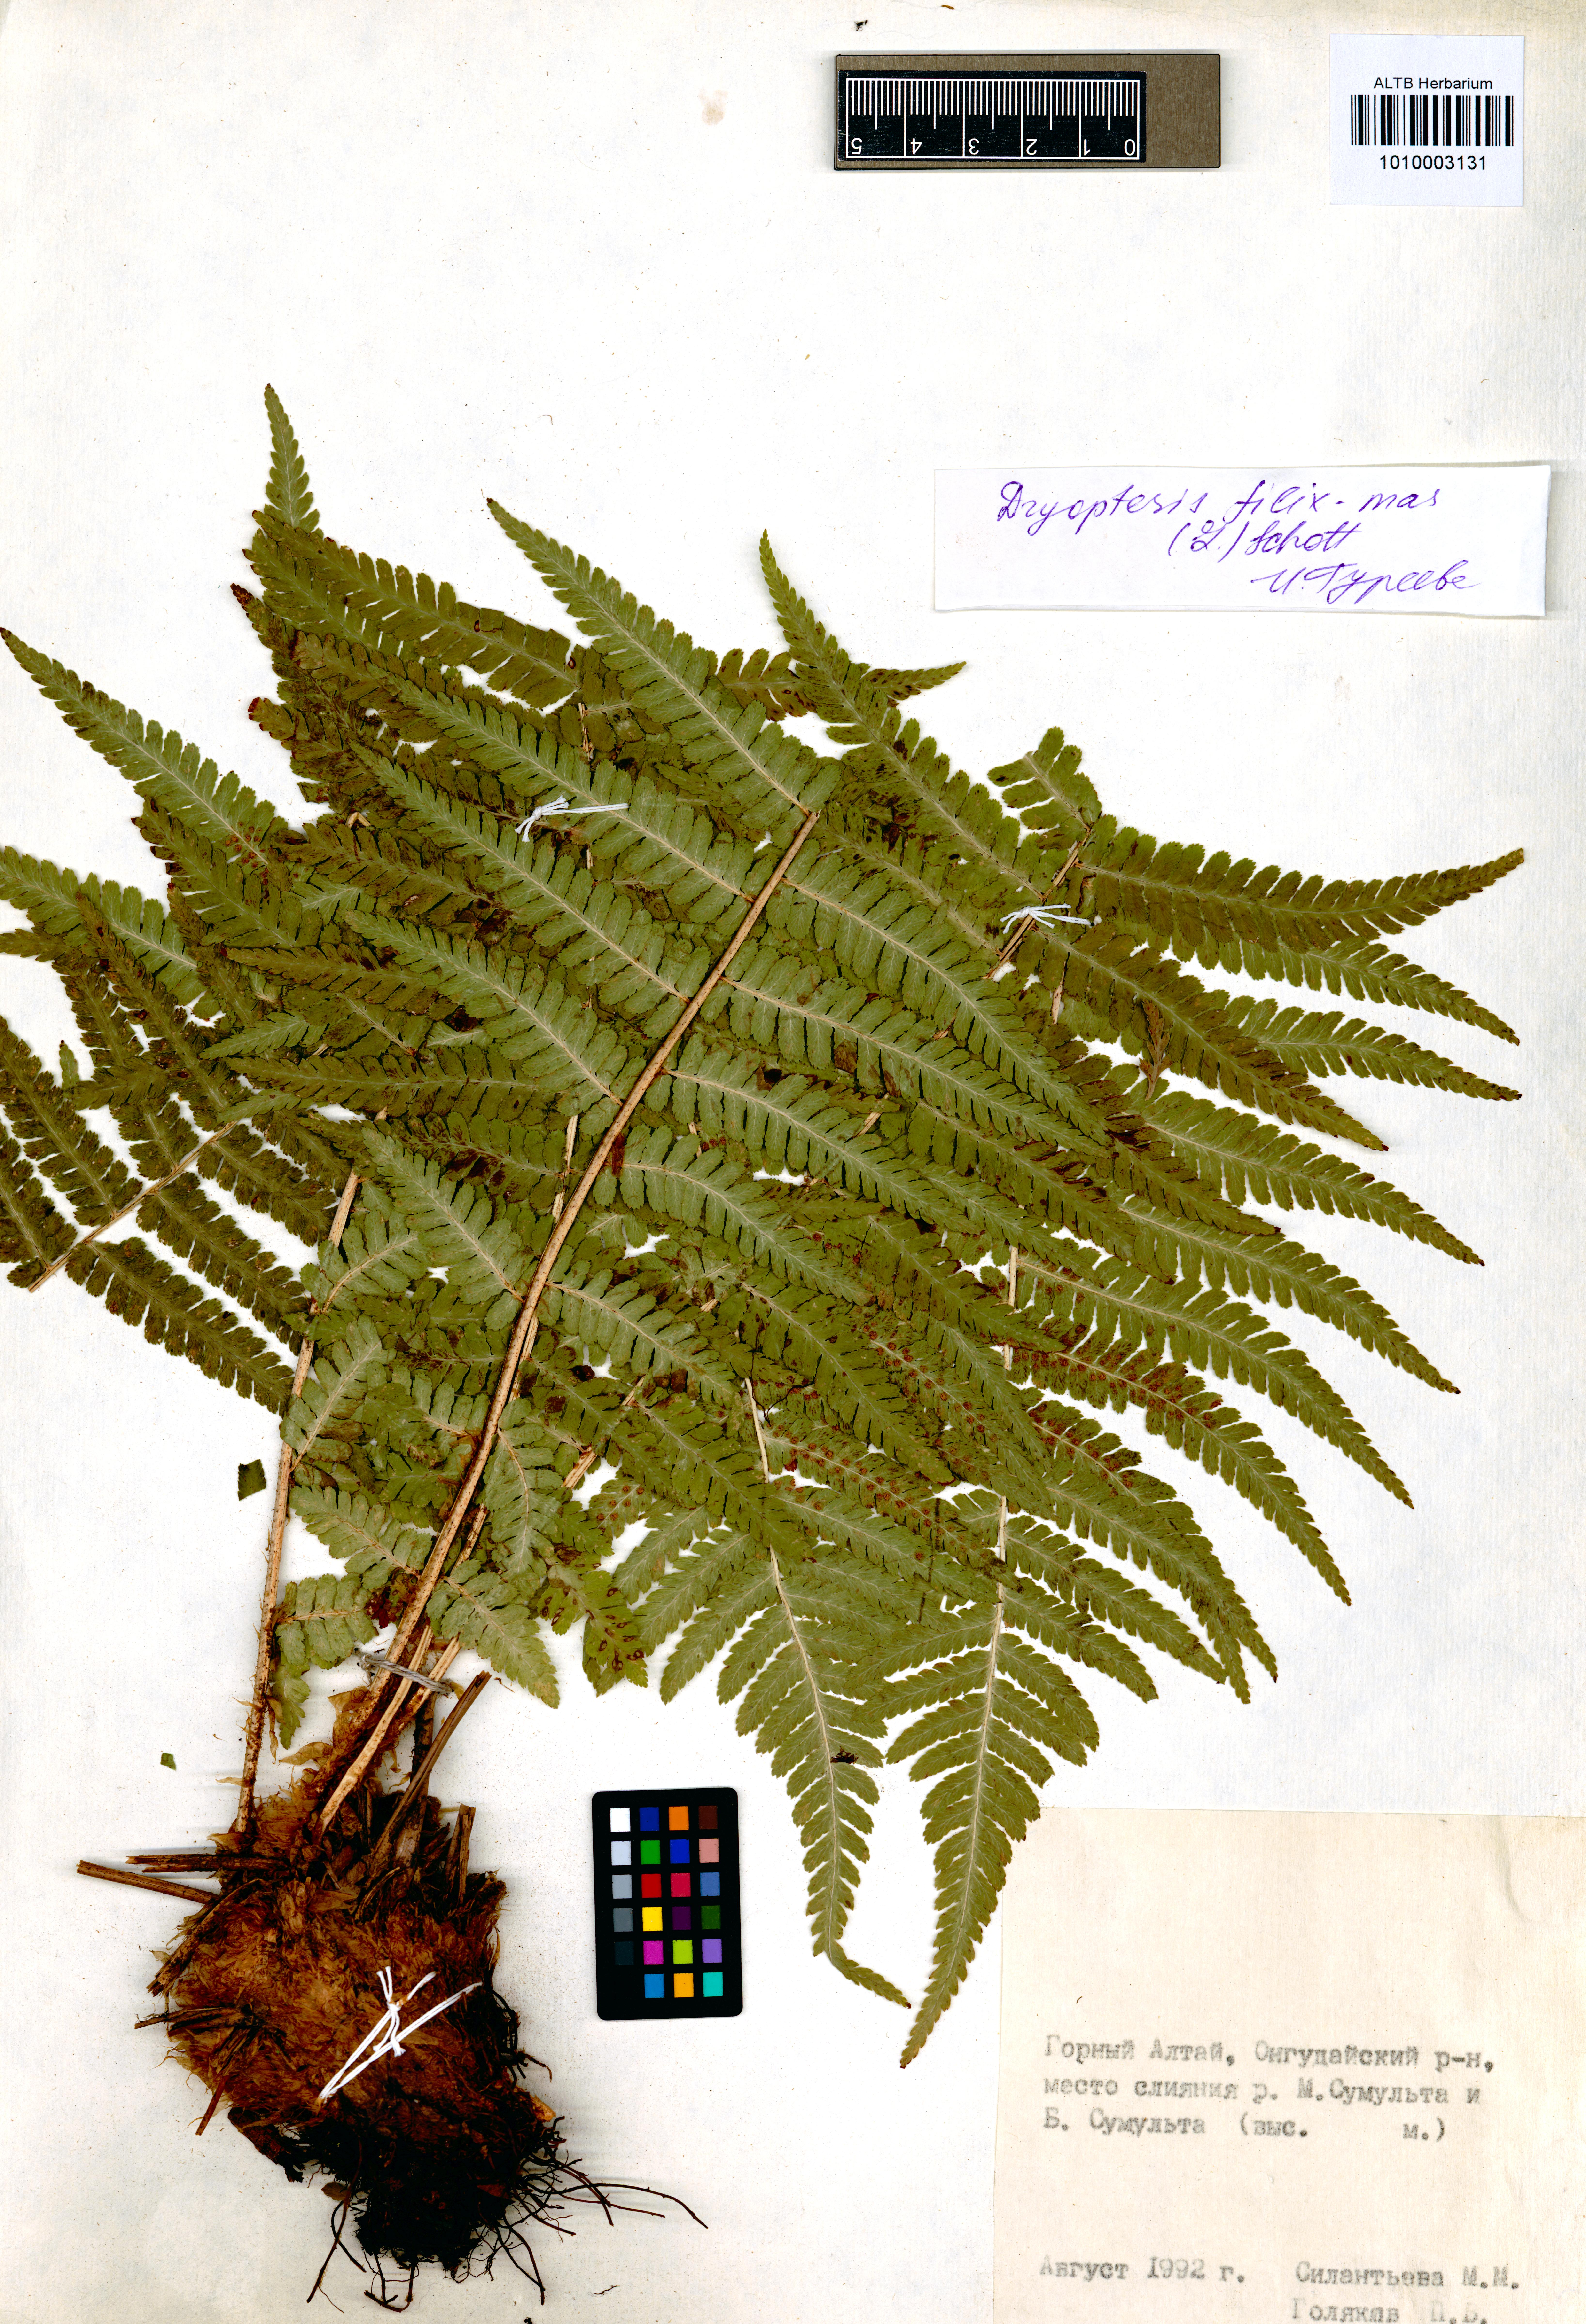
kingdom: Plantae
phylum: Tracheophyta
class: Polypodiopsida
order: Polypodiales
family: Dryopteridaceae
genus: Dryopteris
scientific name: Dryopteris filix-mas
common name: Male fern
